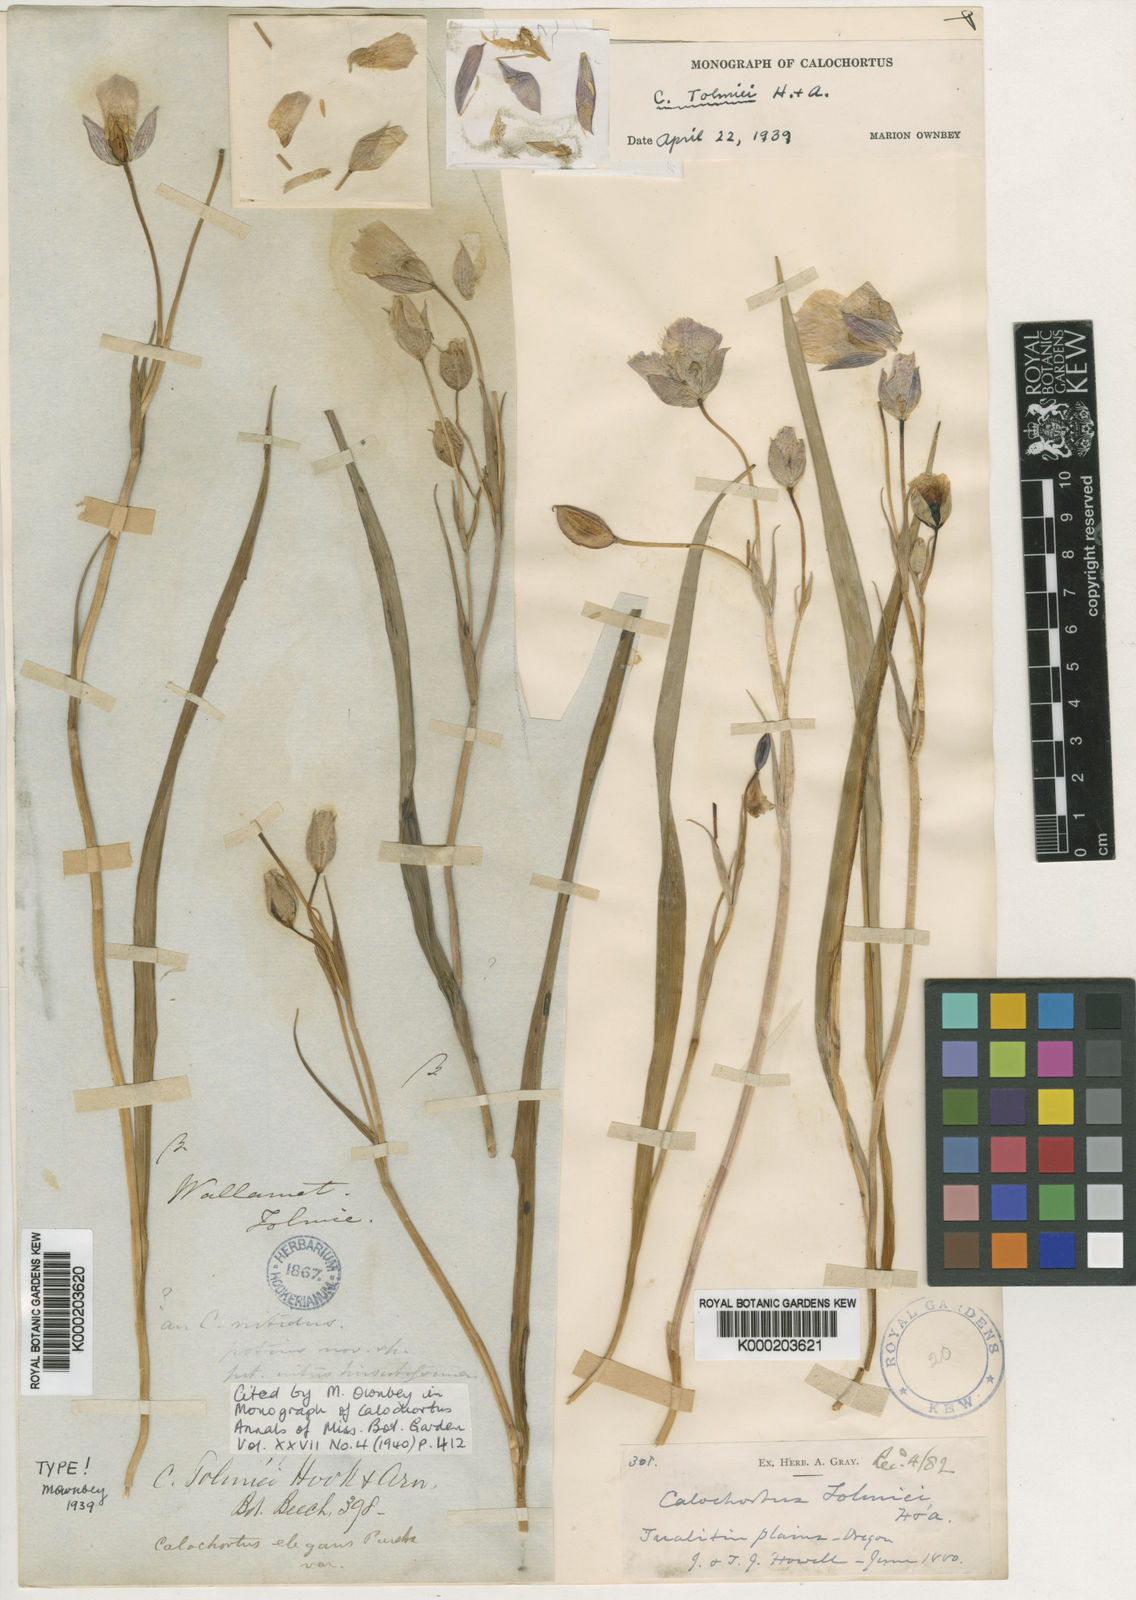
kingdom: Plantae
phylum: Tracheophyta
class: Liliopsida
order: Liliales
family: Liliaceae
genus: Calochortus
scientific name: Calochortus tolmiei
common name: Pussy-ears
